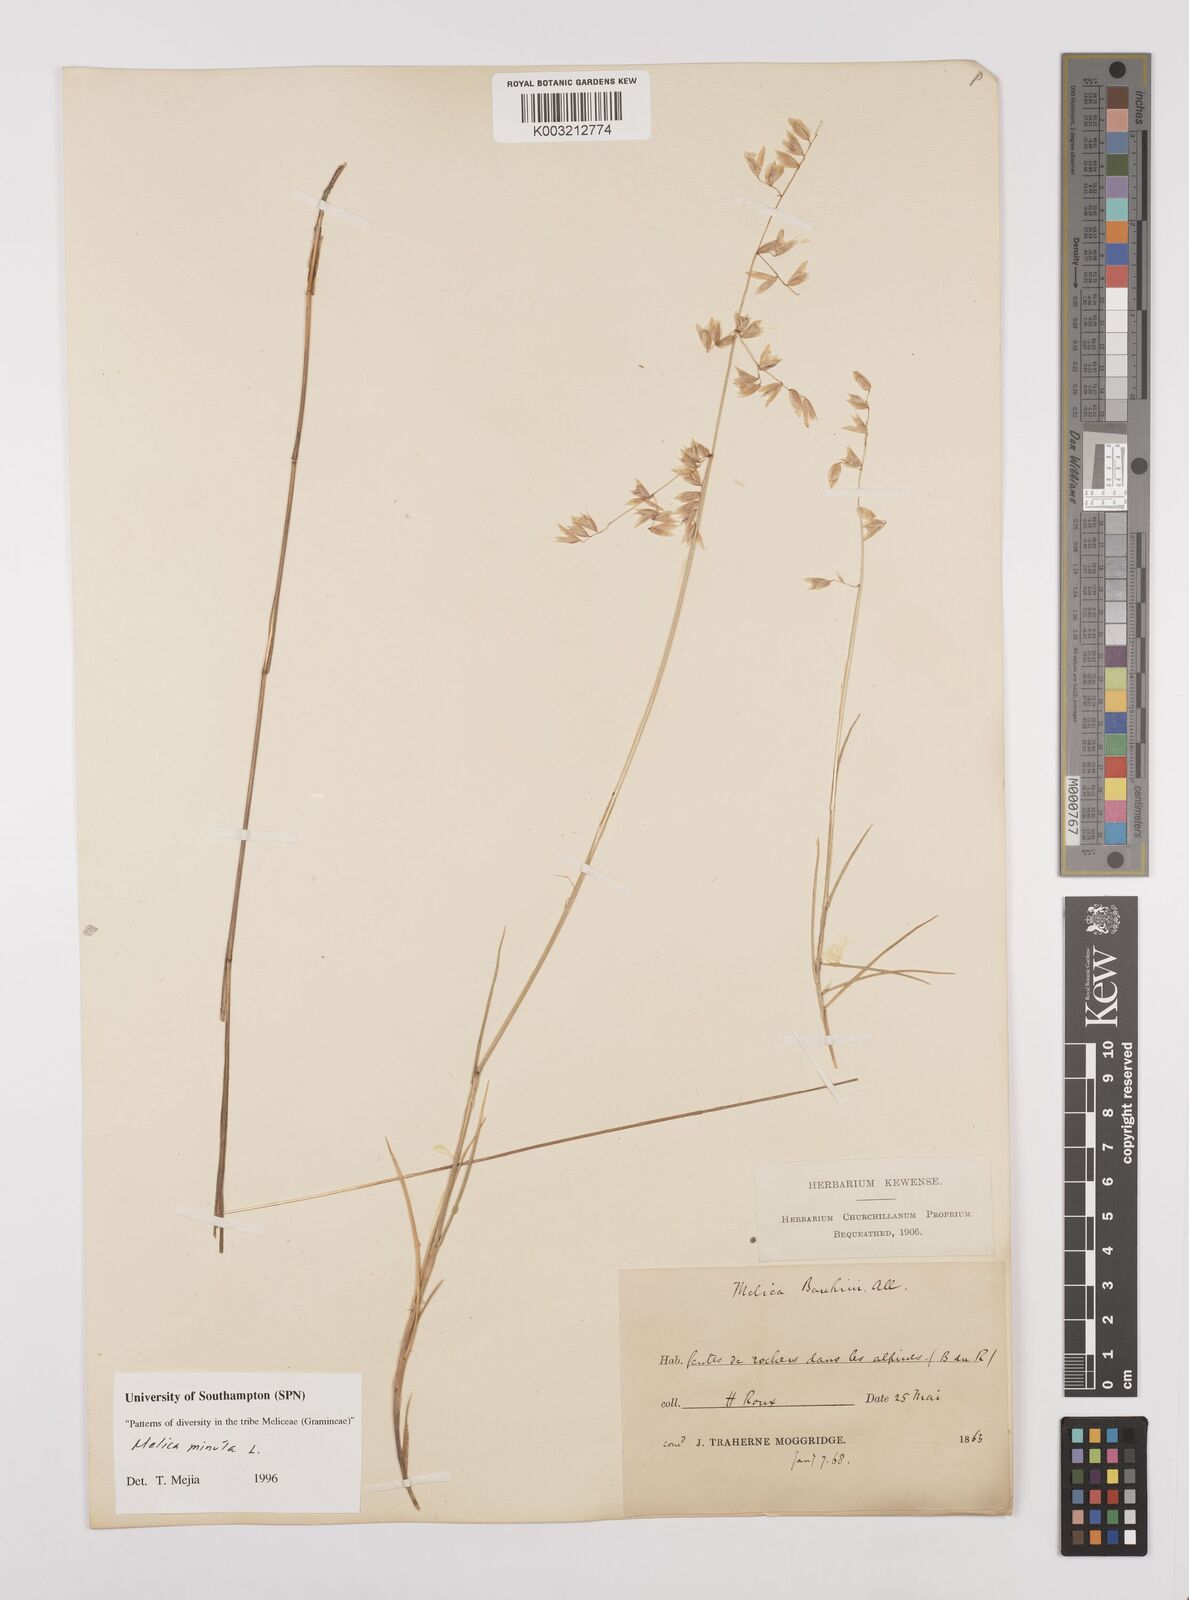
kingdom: Plantae
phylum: Tracheophyta
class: Liliopsida
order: Poales
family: Poaceae
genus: Melica
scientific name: Melica minuta
